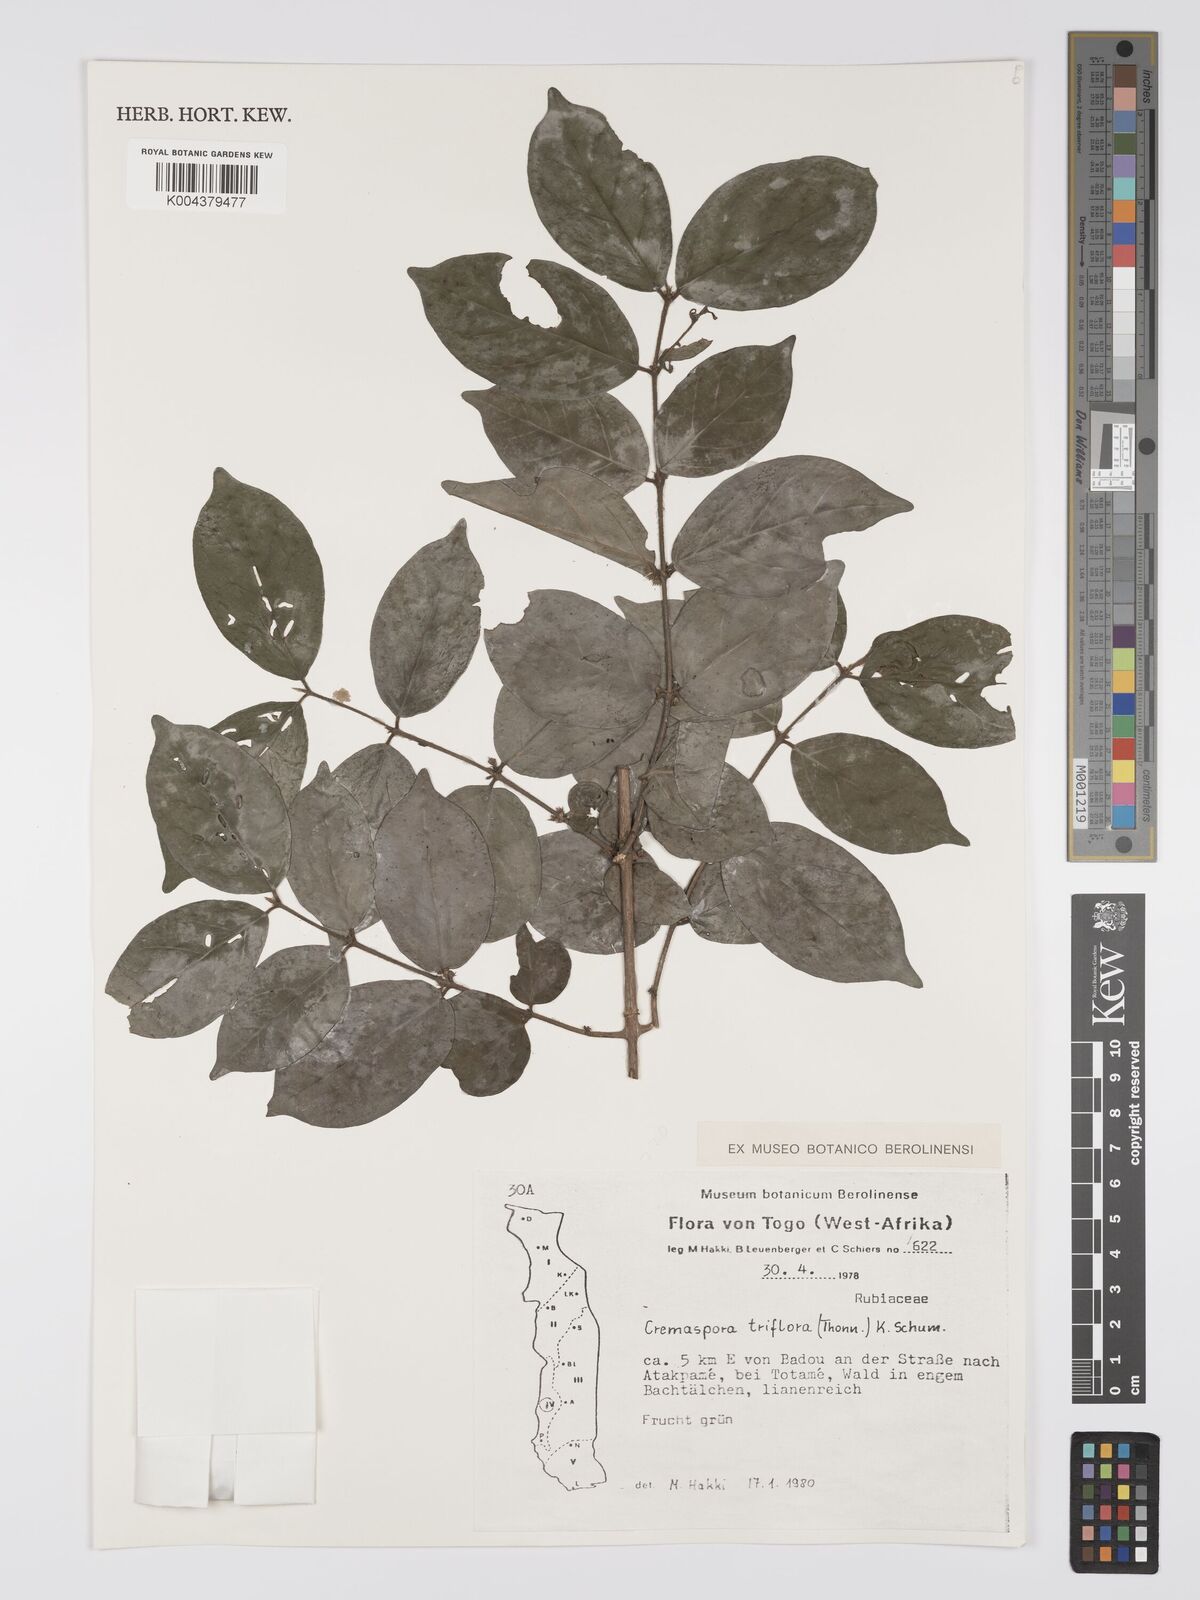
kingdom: Plantae
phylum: Tracheophyta
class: Magnoliopsida
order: Gentianales
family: Rubiaceae
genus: Cremaspora
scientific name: Cremaspora triflora
